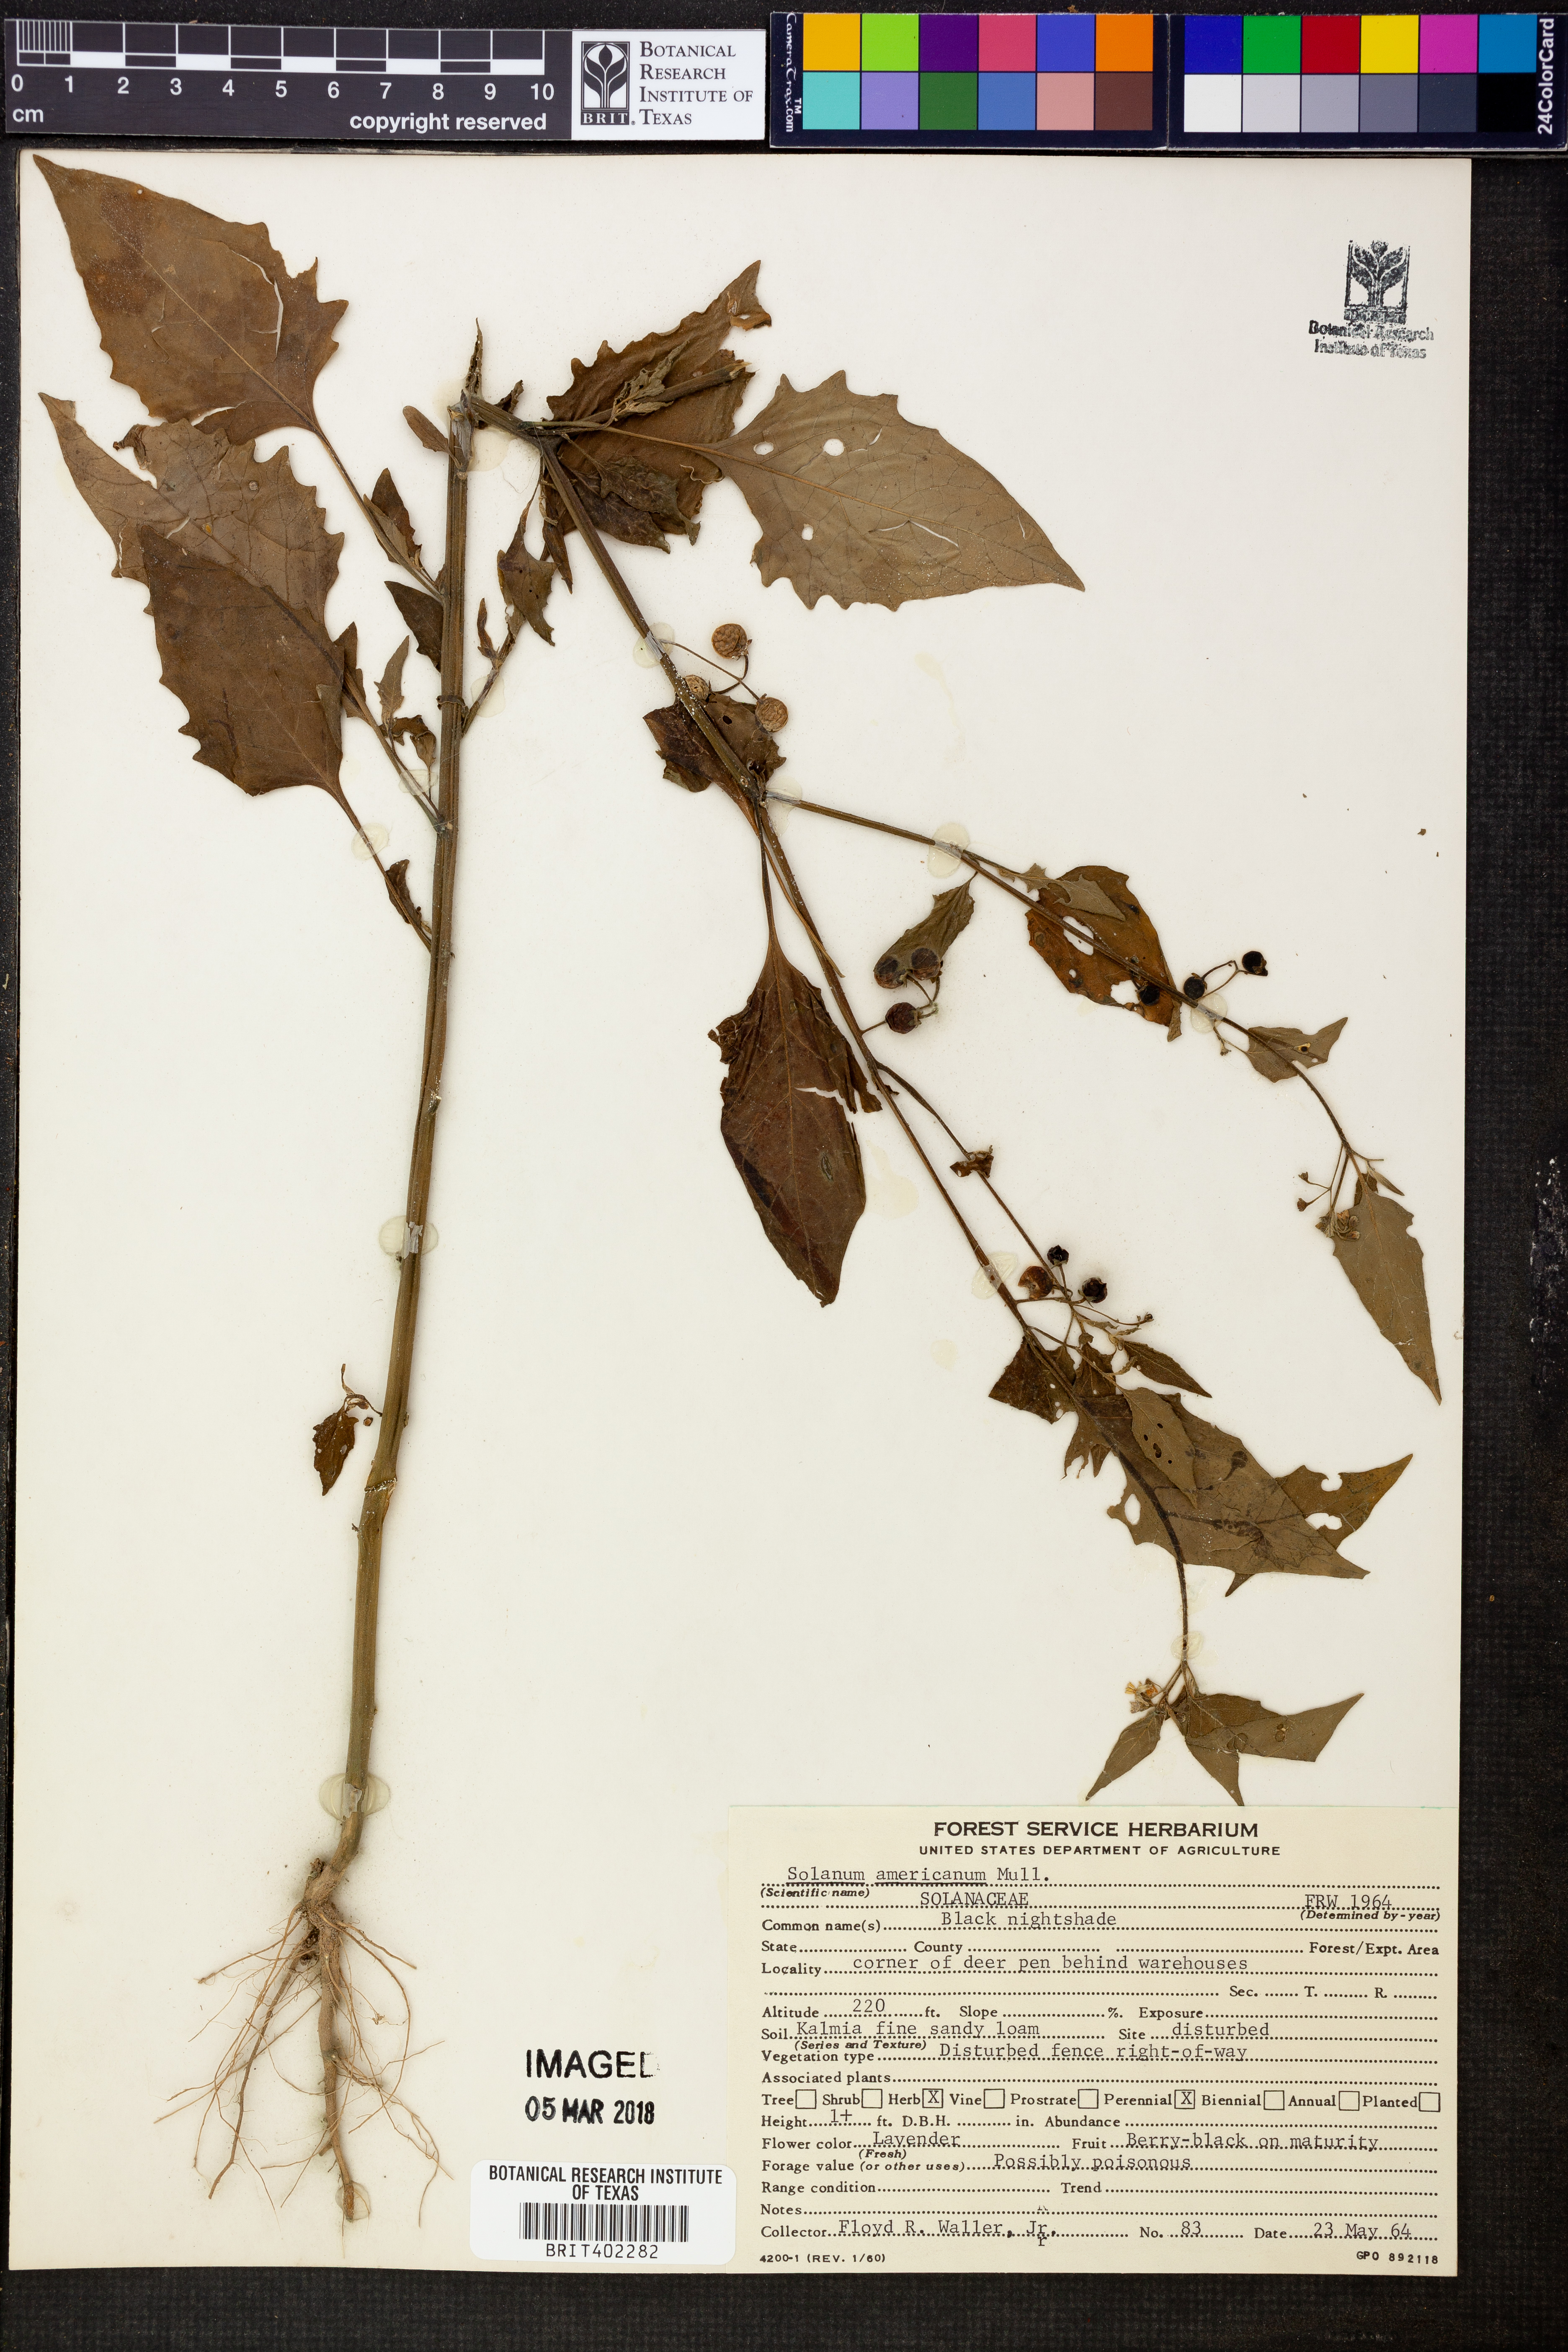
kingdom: Plantae
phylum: Tracheophyta
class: Magnoliopsida
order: Solanales
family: Solanaceae
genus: Solanum
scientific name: Solanum americanum
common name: American black nightshade
